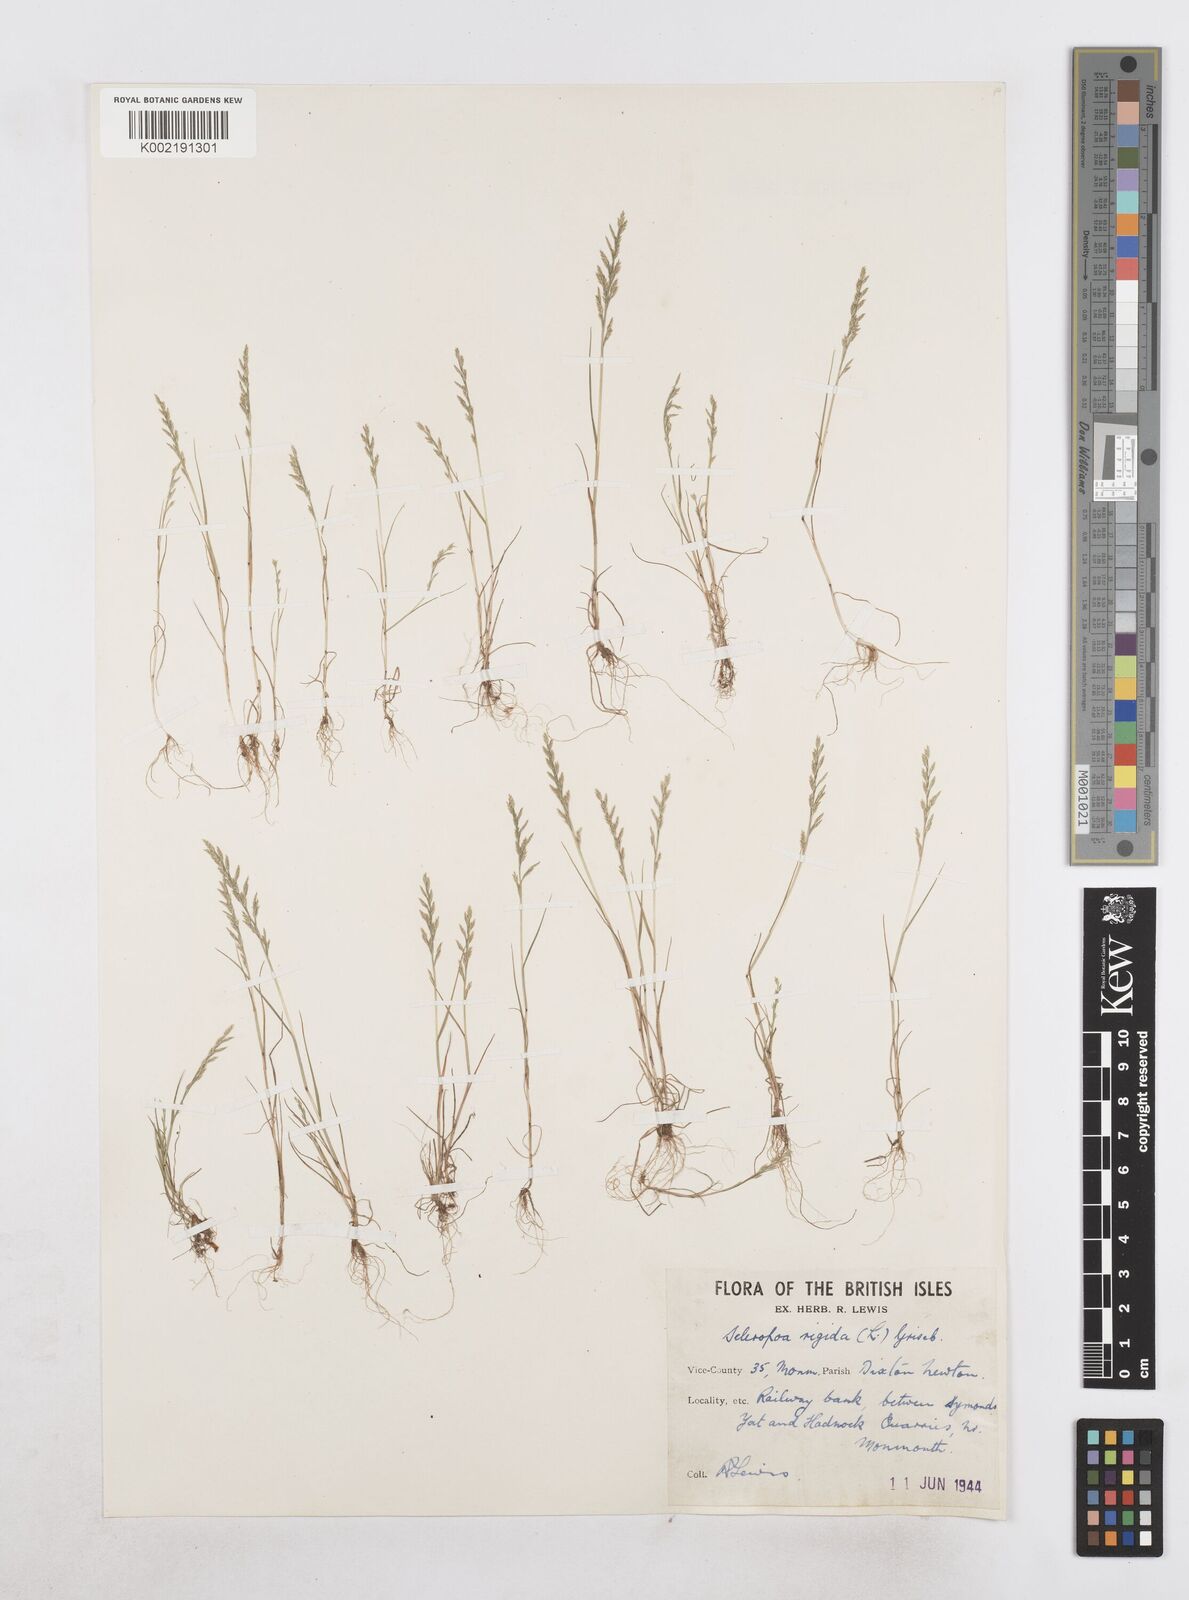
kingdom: Plantae
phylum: Tracheophyta
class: Liliopsida
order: Poales
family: Poaceae
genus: Catapodium
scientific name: Catapodium rigidum
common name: Fern-grass
